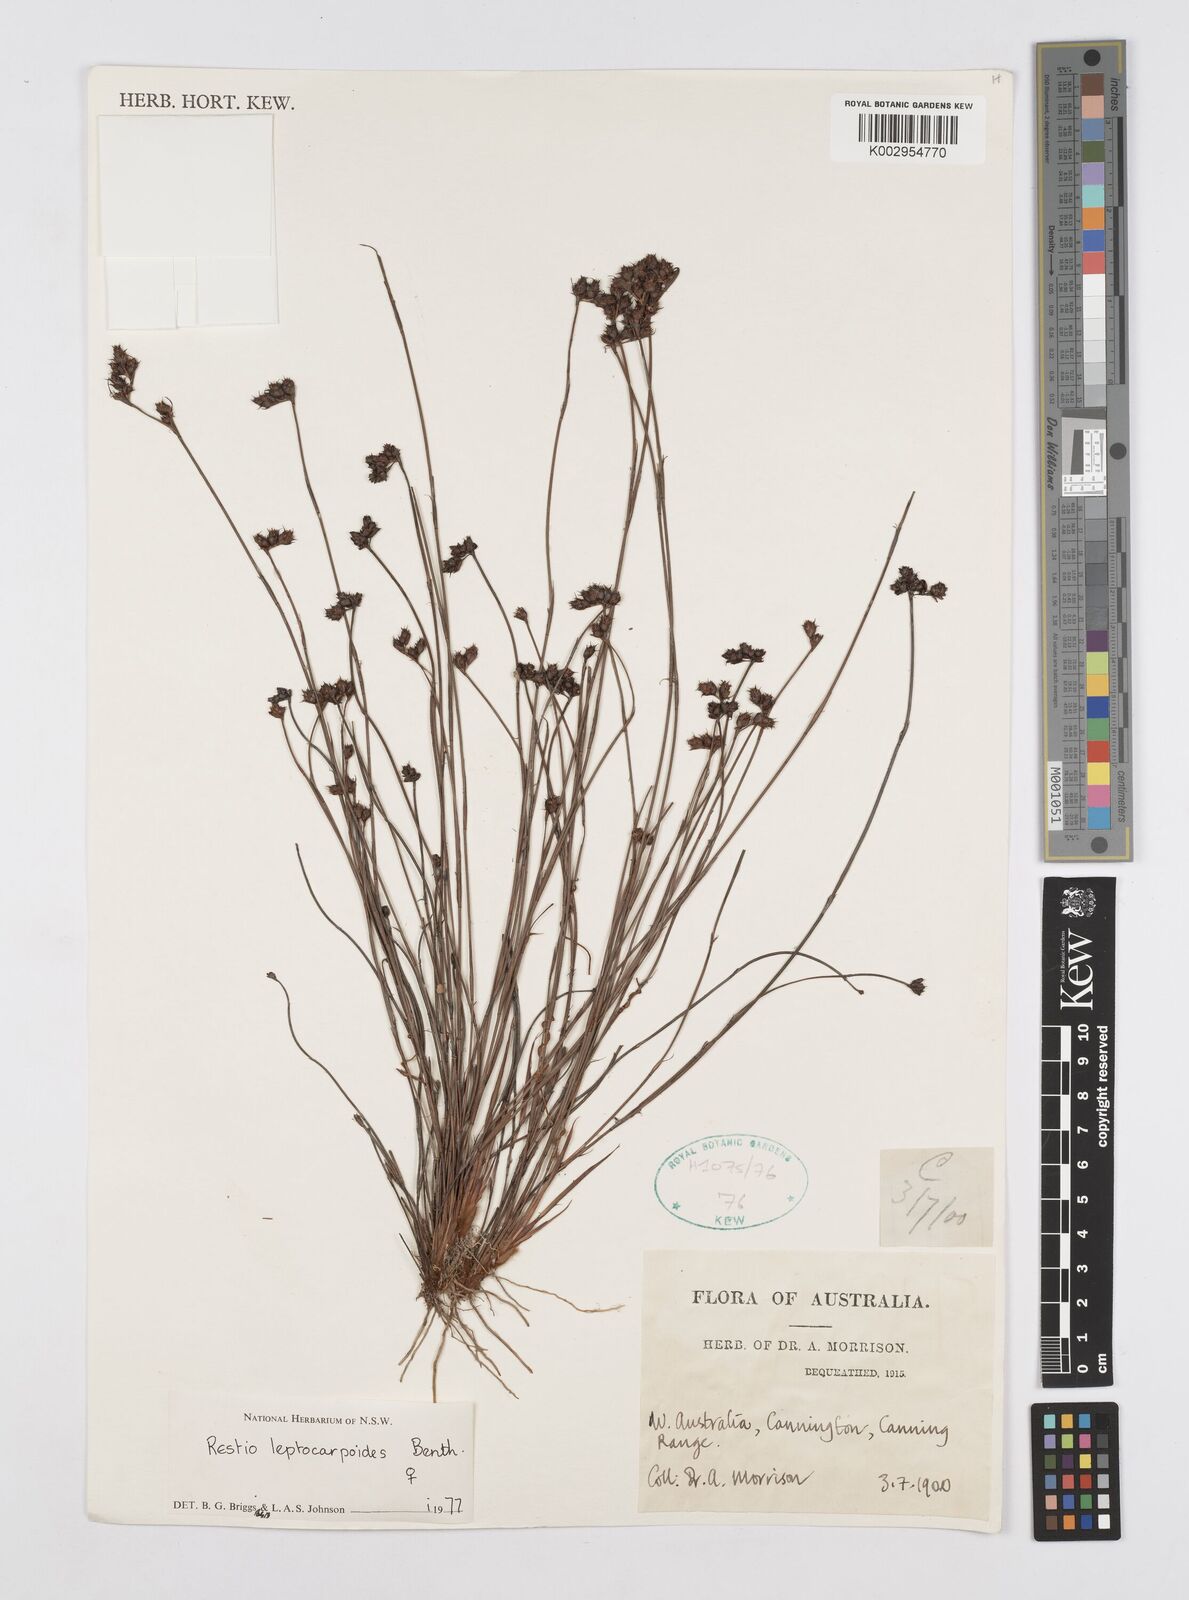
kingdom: Plantae
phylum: Tracheophyta
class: Liliopsida
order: Poales
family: Restionaceae
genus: Cytogonidium
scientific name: Cytogonidium leptocarpoides
